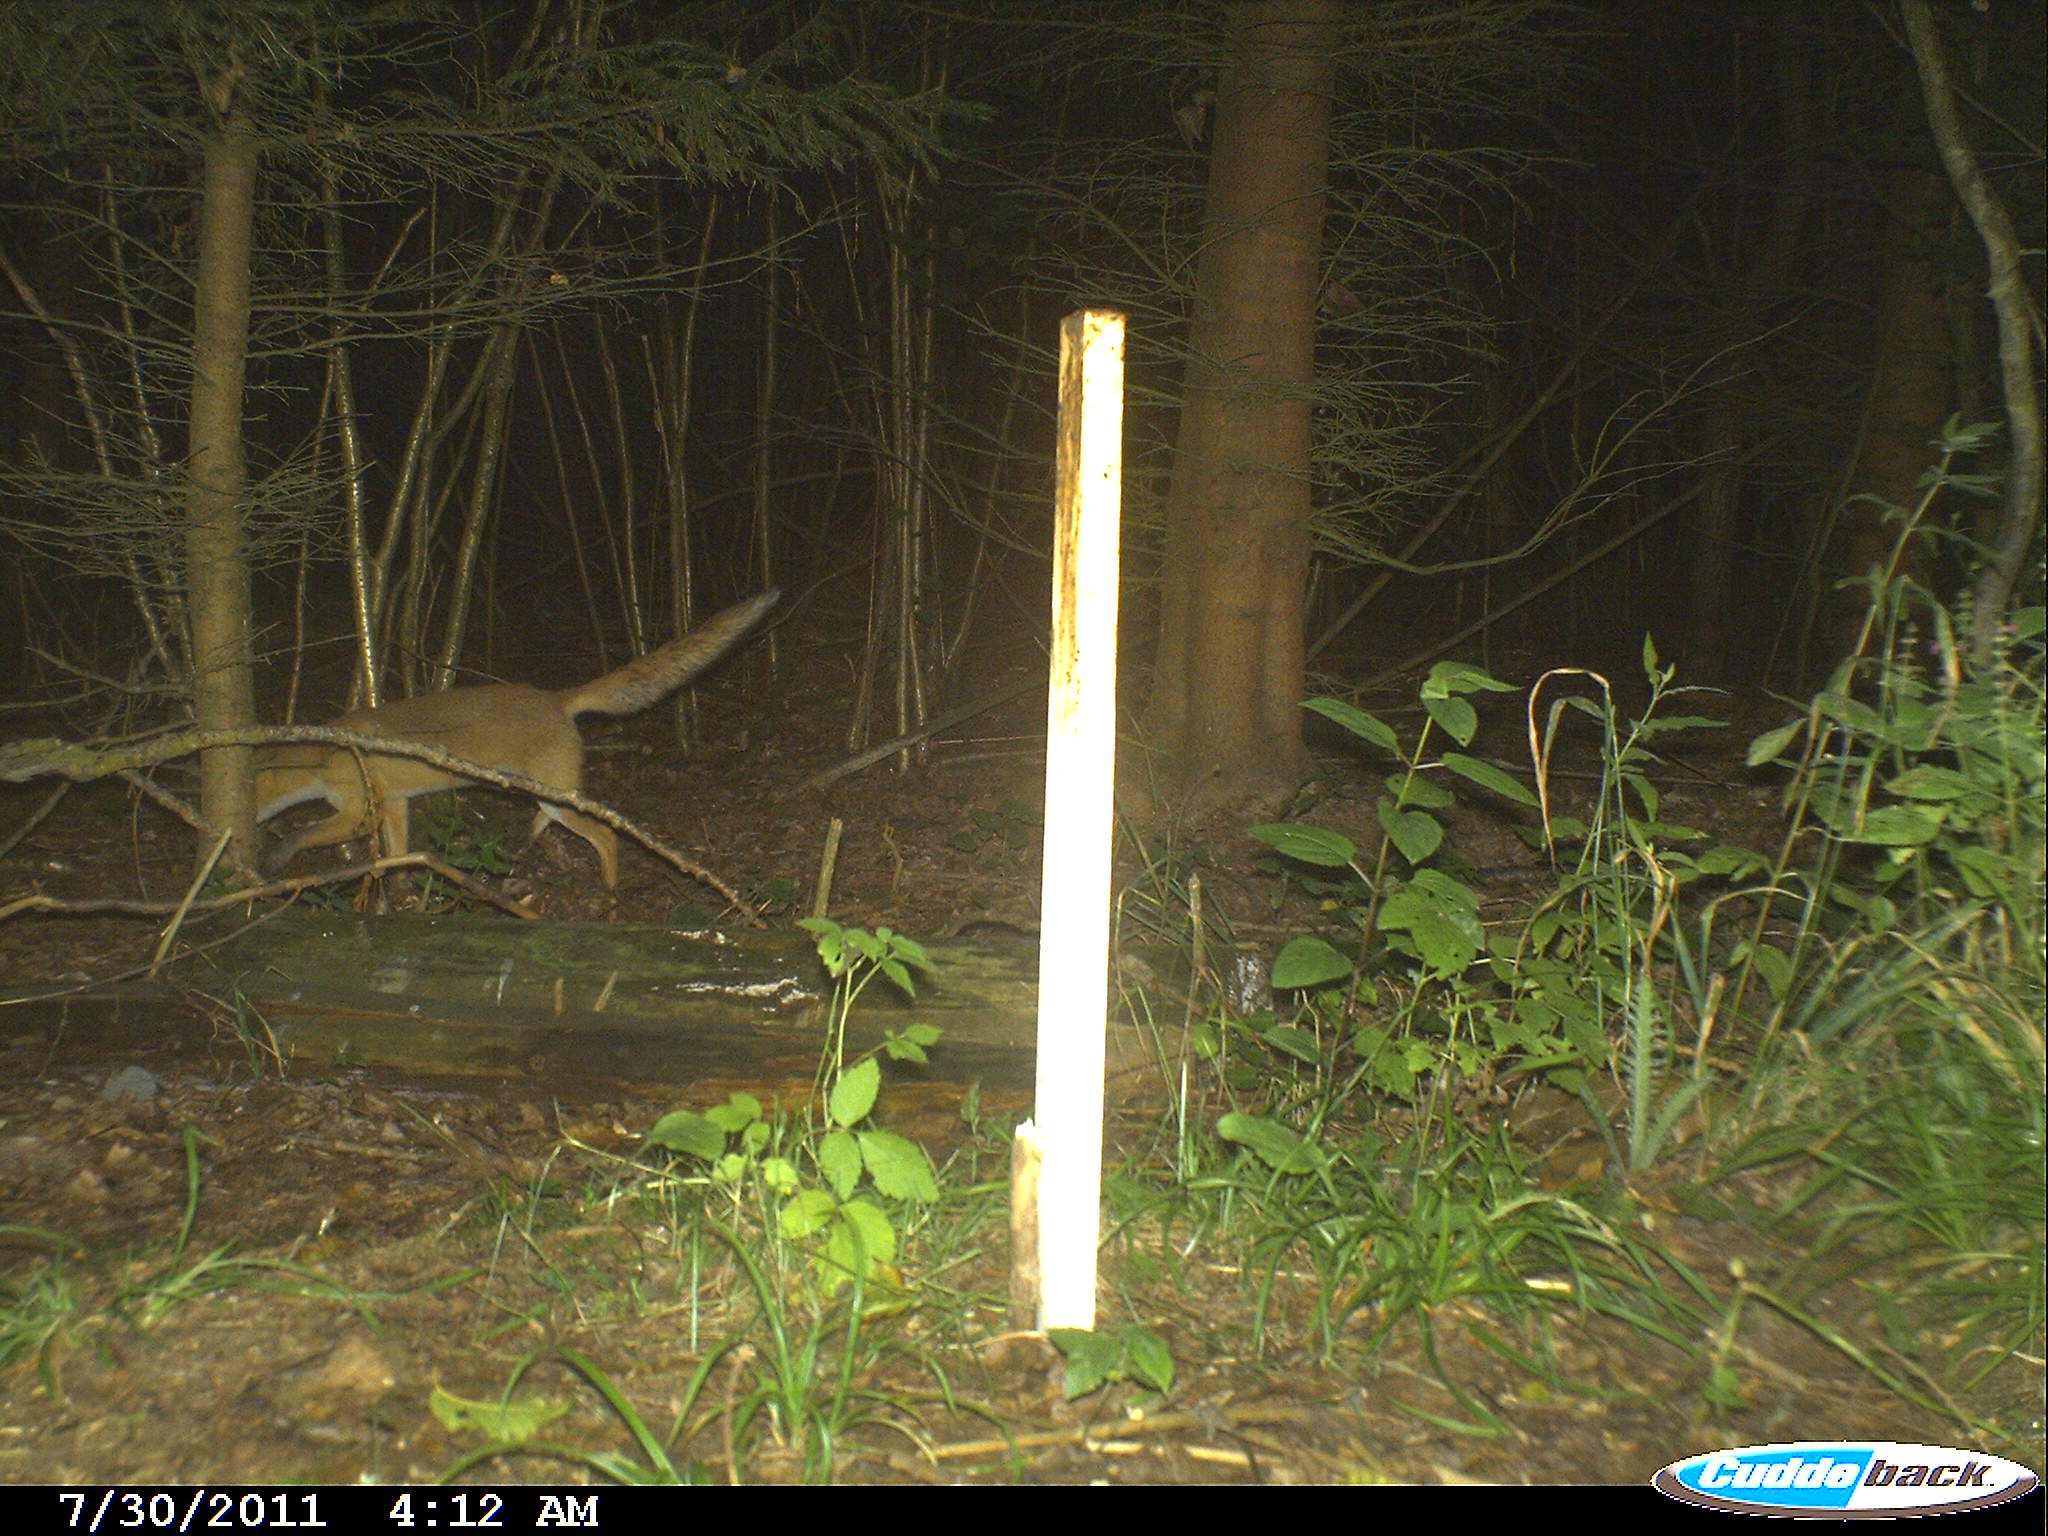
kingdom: Animalia
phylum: Chordata
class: Mammalia
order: Carnivora
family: Canidae
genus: Vulpes
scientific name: Vulpes vulpes
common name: Red fox
